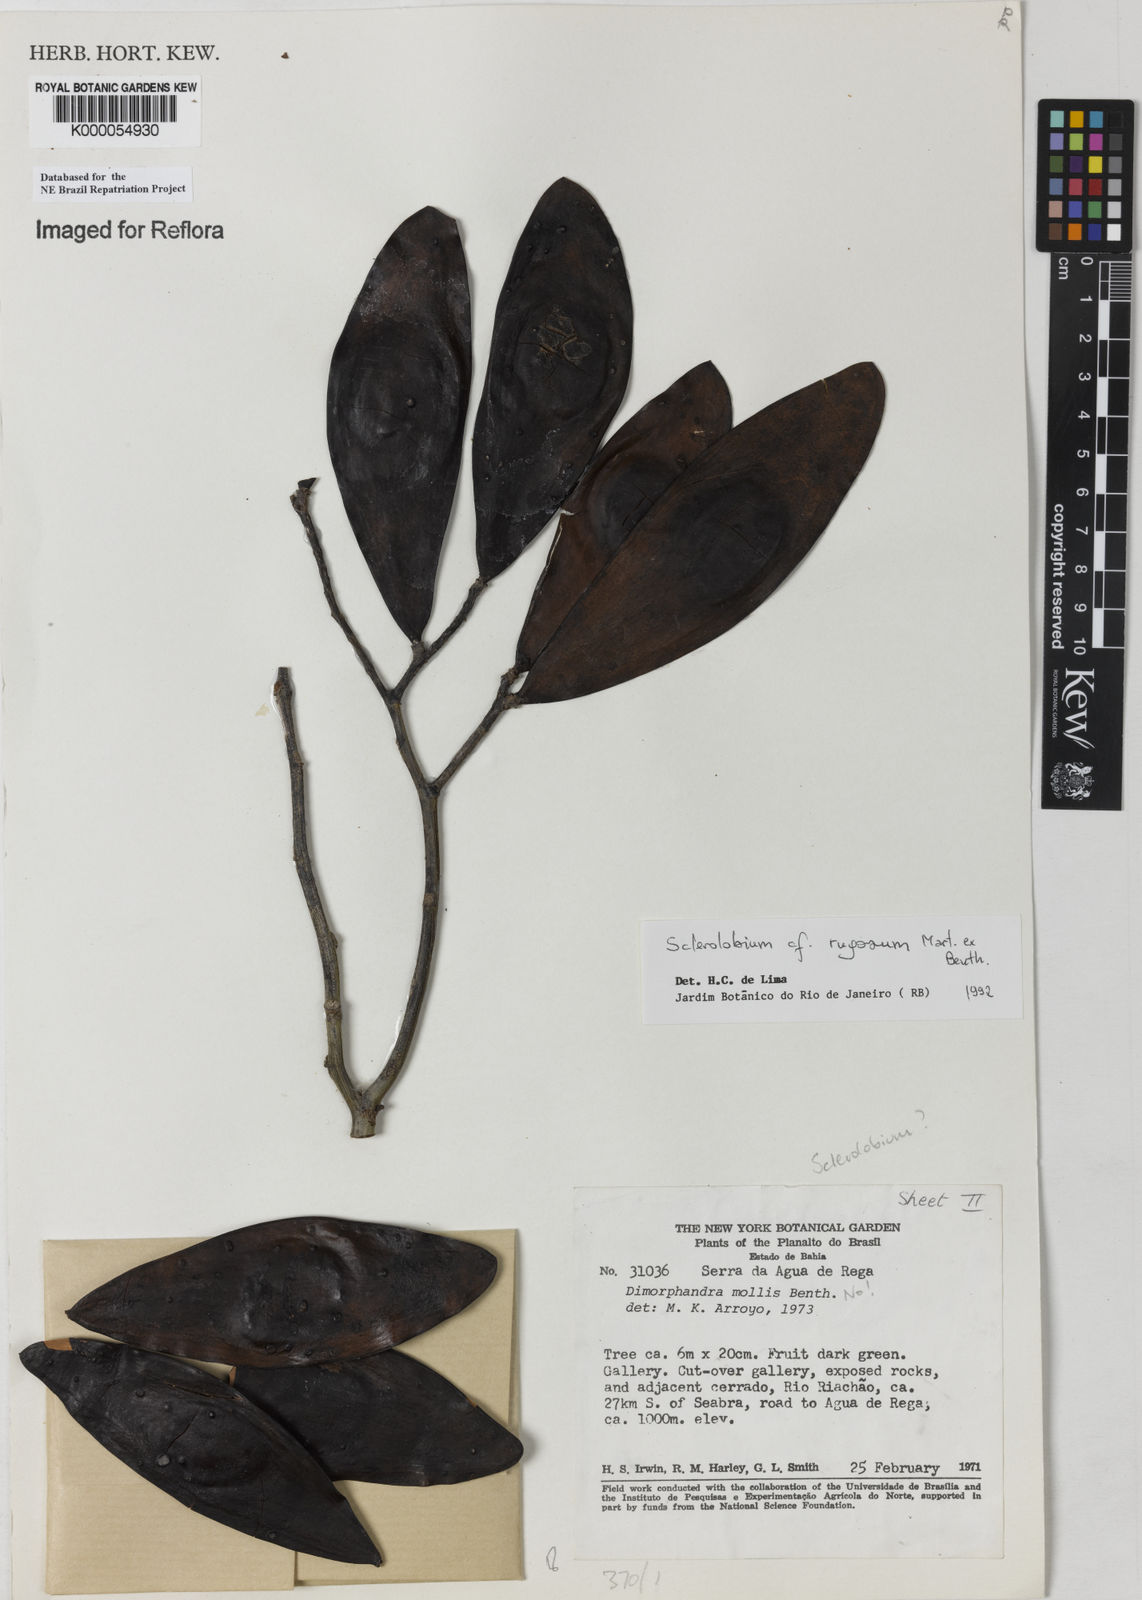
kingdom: Plantae
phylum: Tracheophyta
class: Magnoliopsida
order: Fabales
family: Fabaceae
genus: Tachigali
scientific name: Tachigali rugosa
